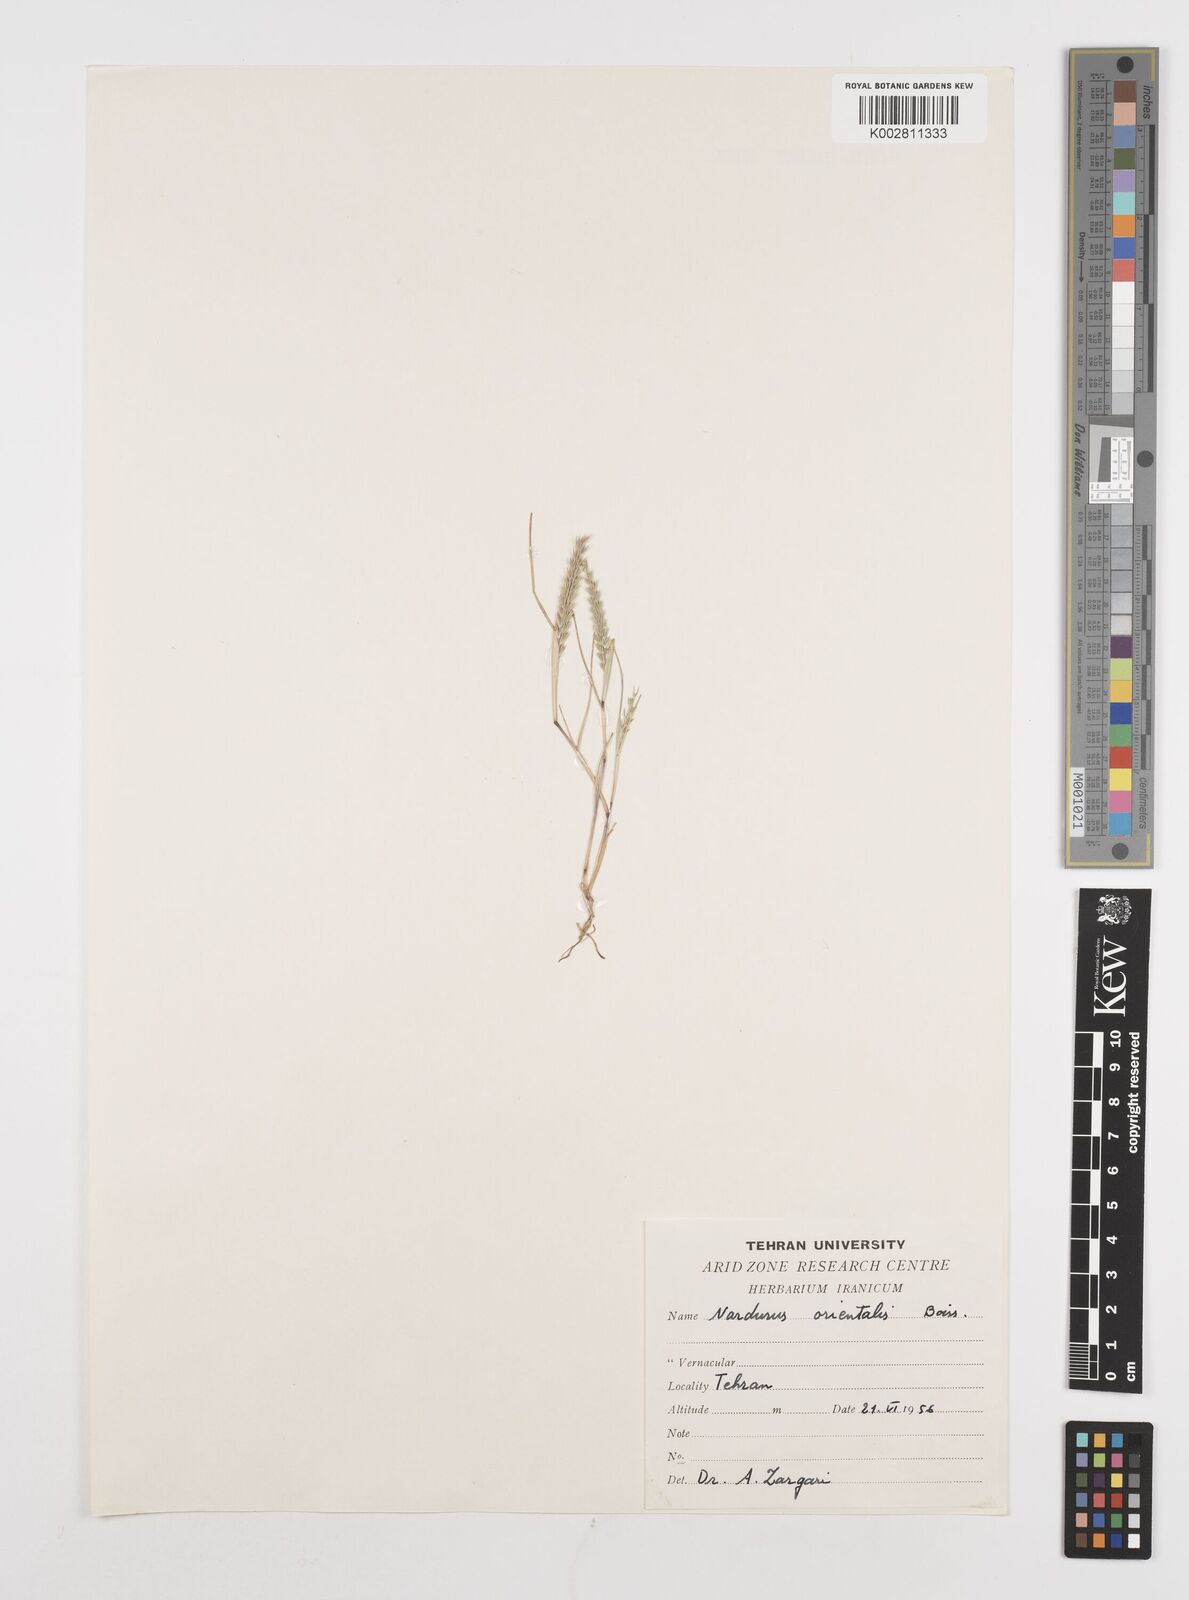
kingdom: Plantae
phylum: Tracheophyta
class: Liliopsida
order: Poales
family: Poaceae
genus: Festuca
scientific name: Festuca orientalis
